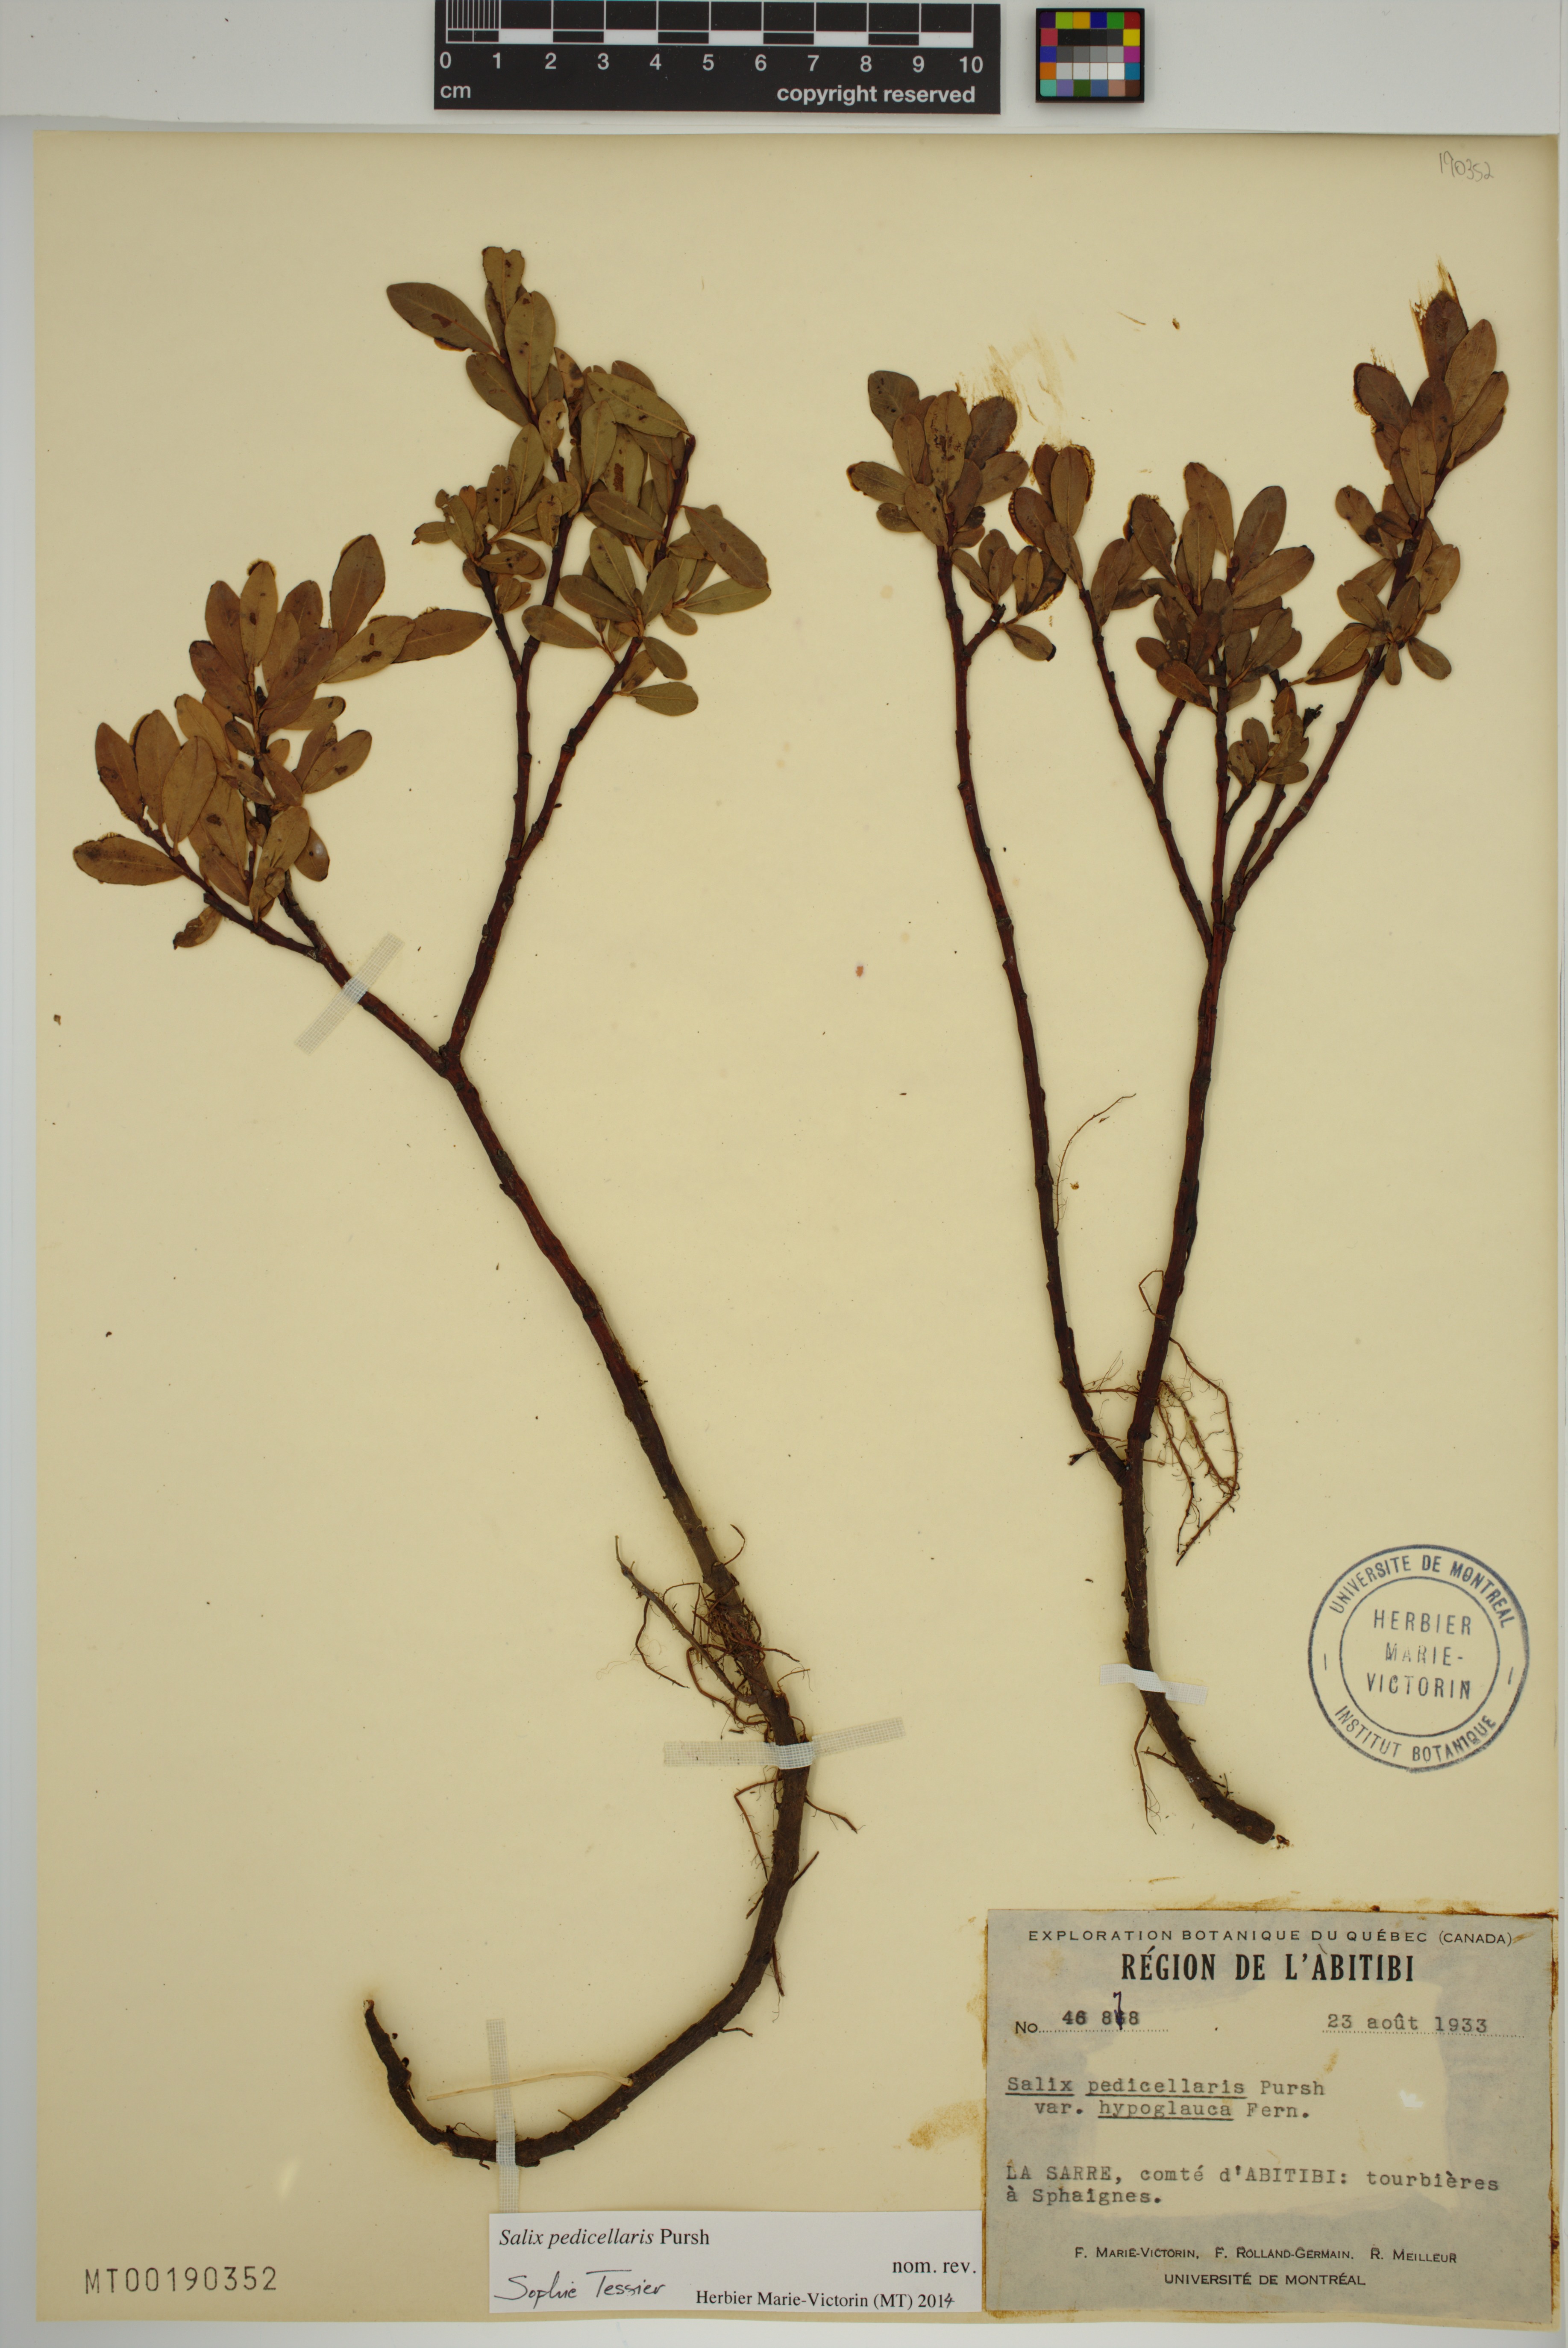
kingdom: Plantae
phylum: Tracheophyta
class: Magnoliopsida
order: Malpighiales
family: Salicaceae
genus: Salix
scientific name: Salix pedicellaris
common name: Bog willow
